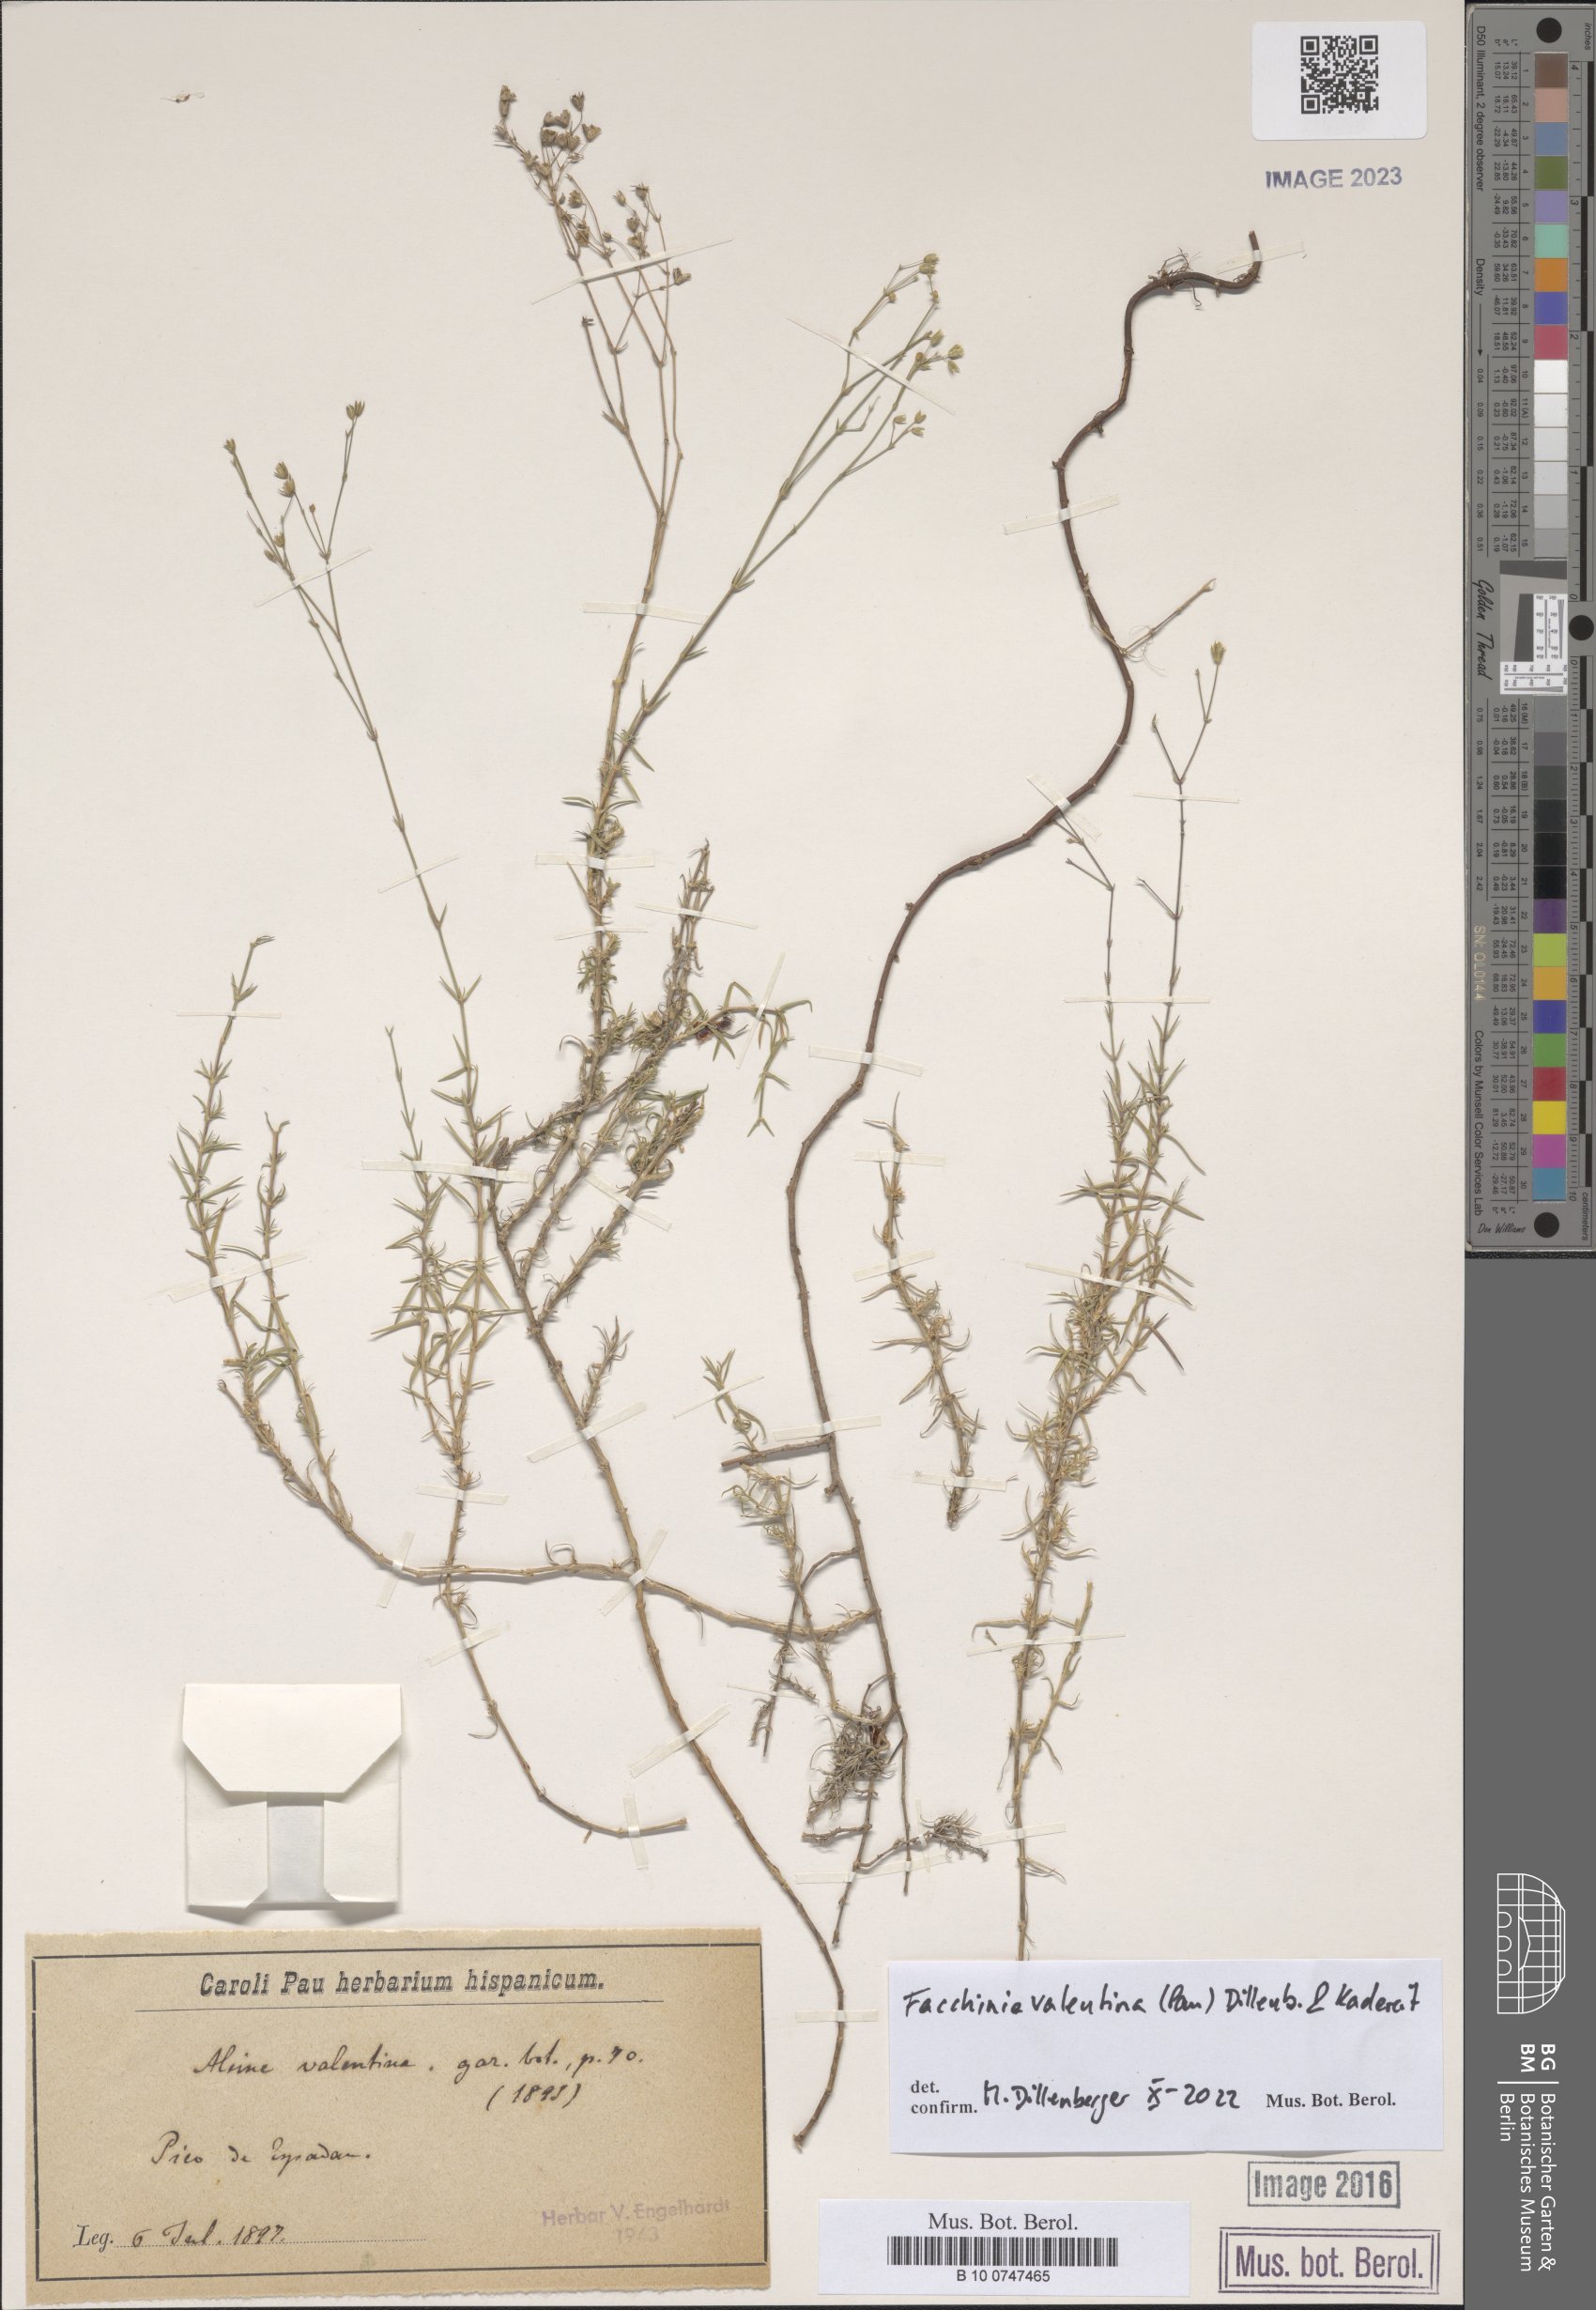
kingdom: Plantae
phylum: Tracheophyta
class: Magnoliopsida
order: Caryophyllales
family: Caryophyllaceae
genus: Facchinia
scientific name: Facchinia valentina
